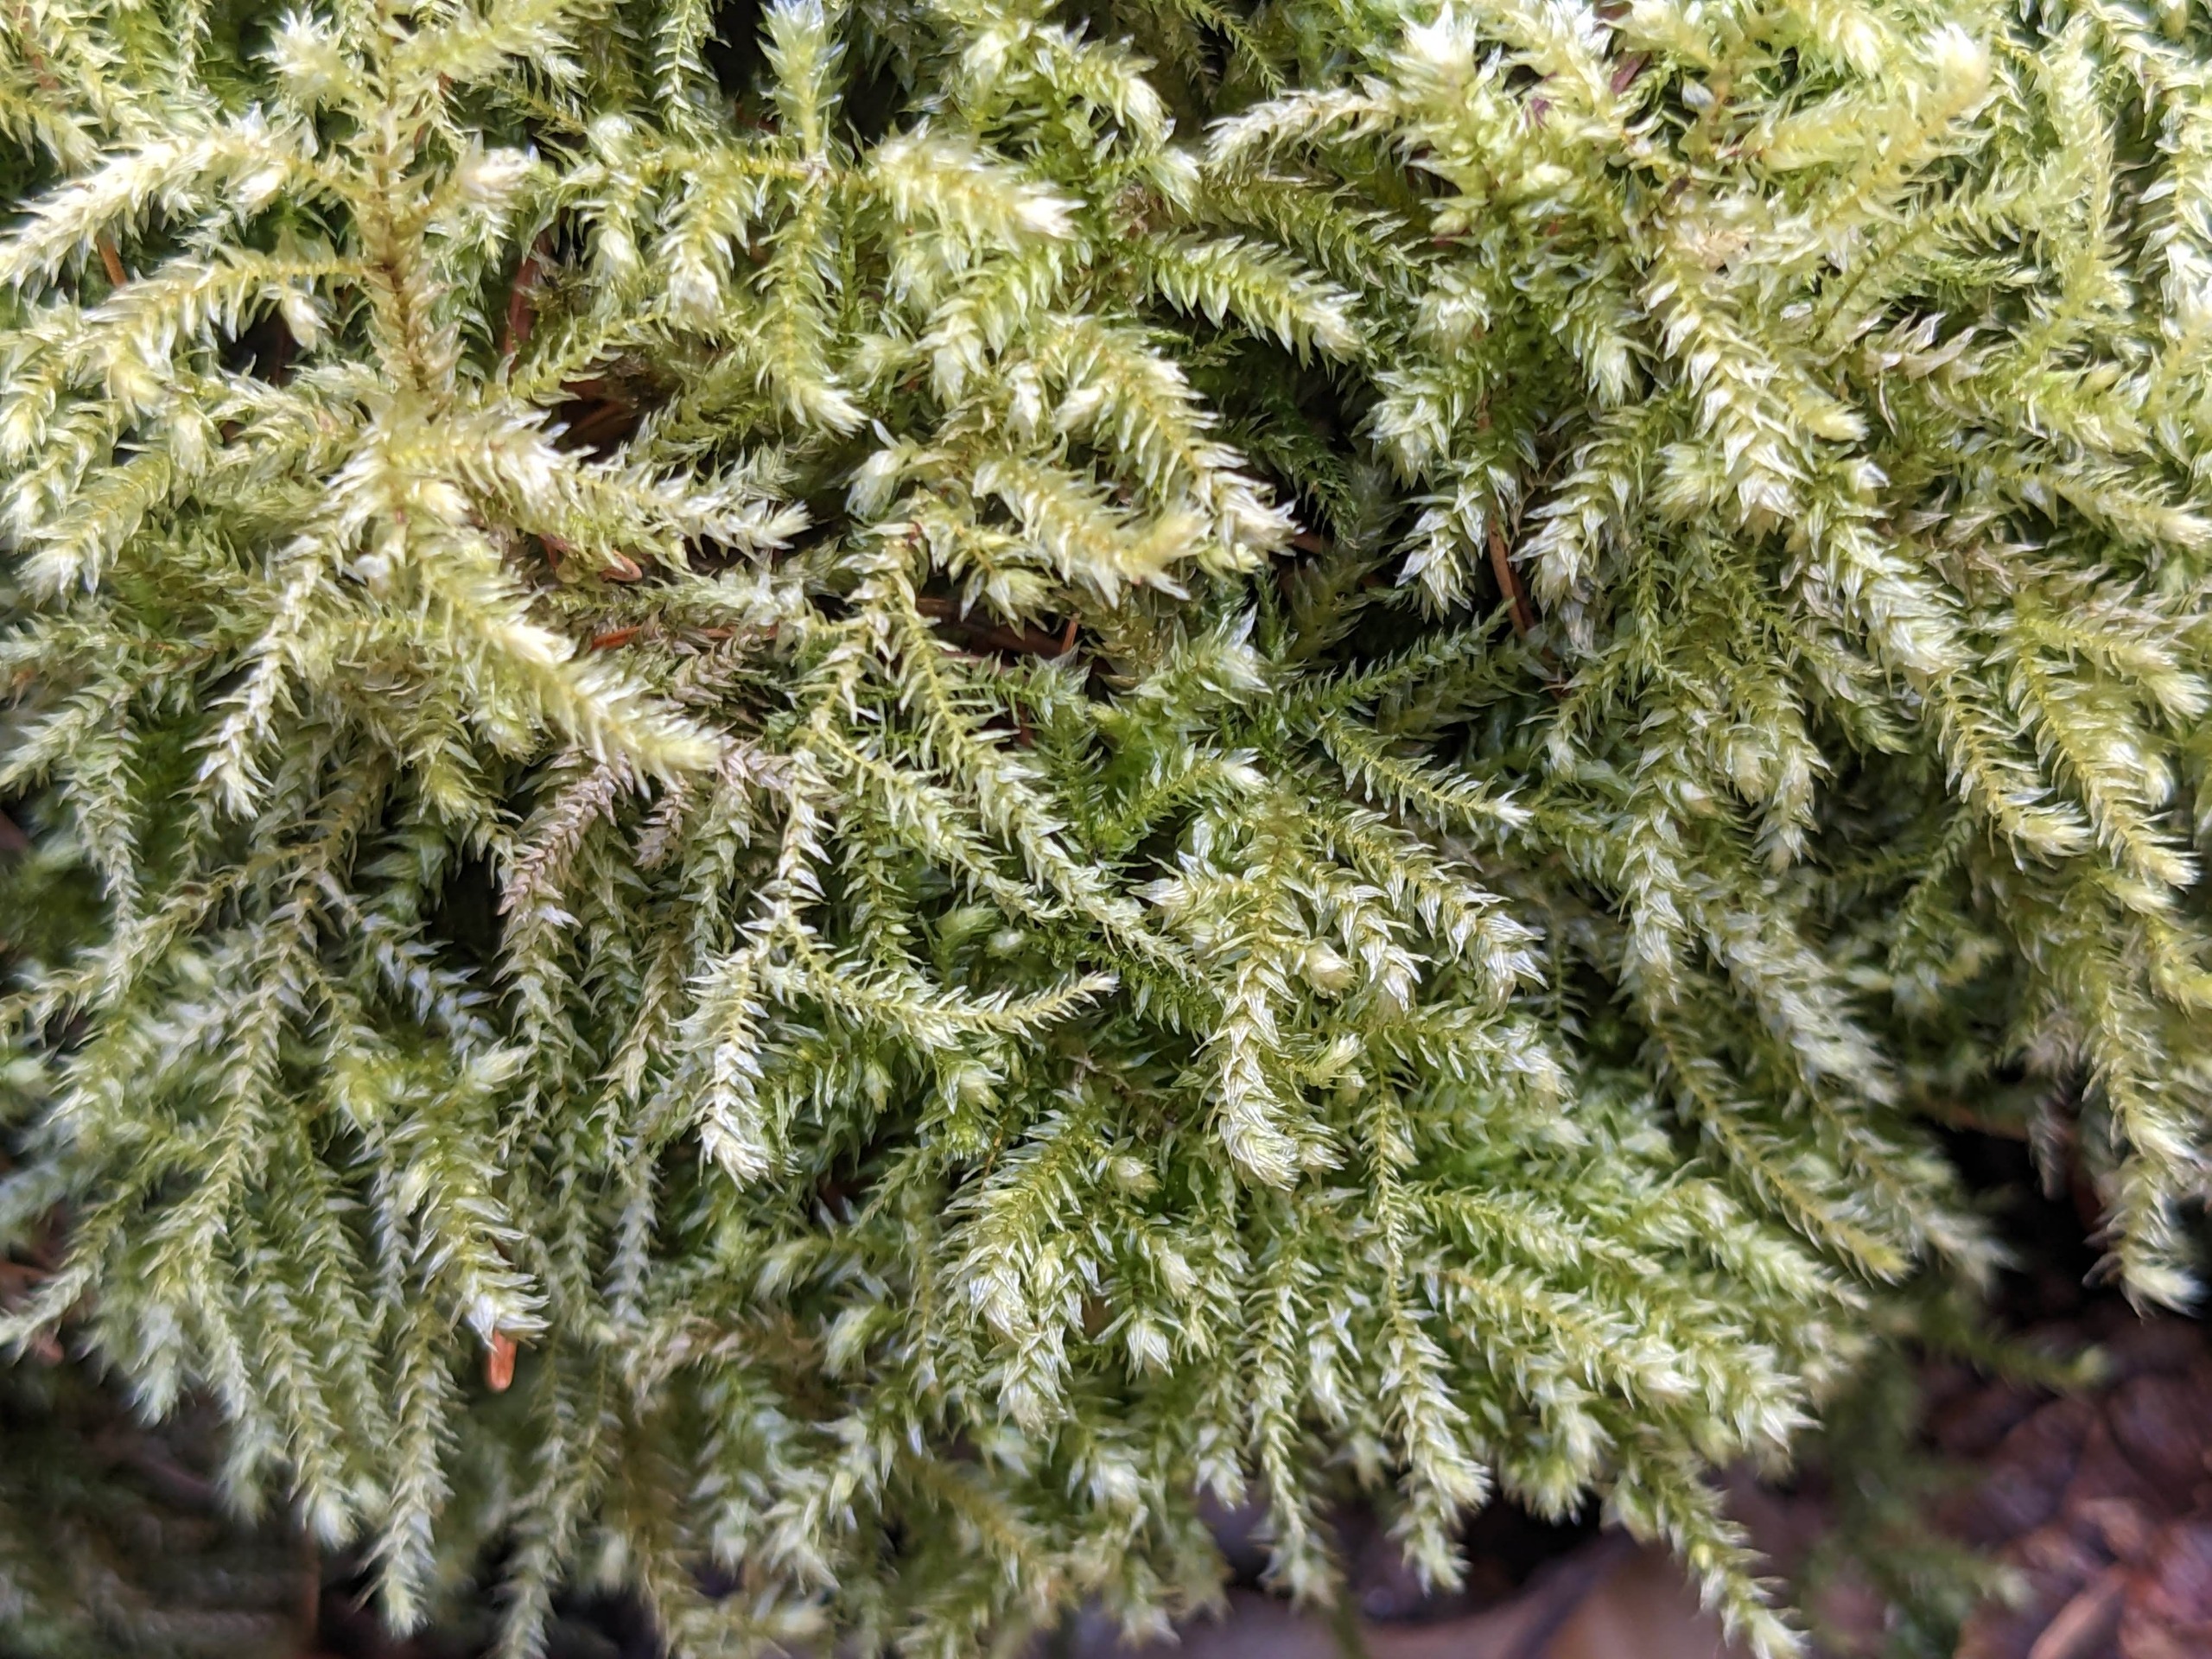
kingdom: Plantae
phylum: Bryophyta
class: Bryopsida
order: Hypnales
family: Brachytheciaceae
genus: Eurhynchium
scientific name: Eurhynchium striatum
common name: Stribet næbmos
